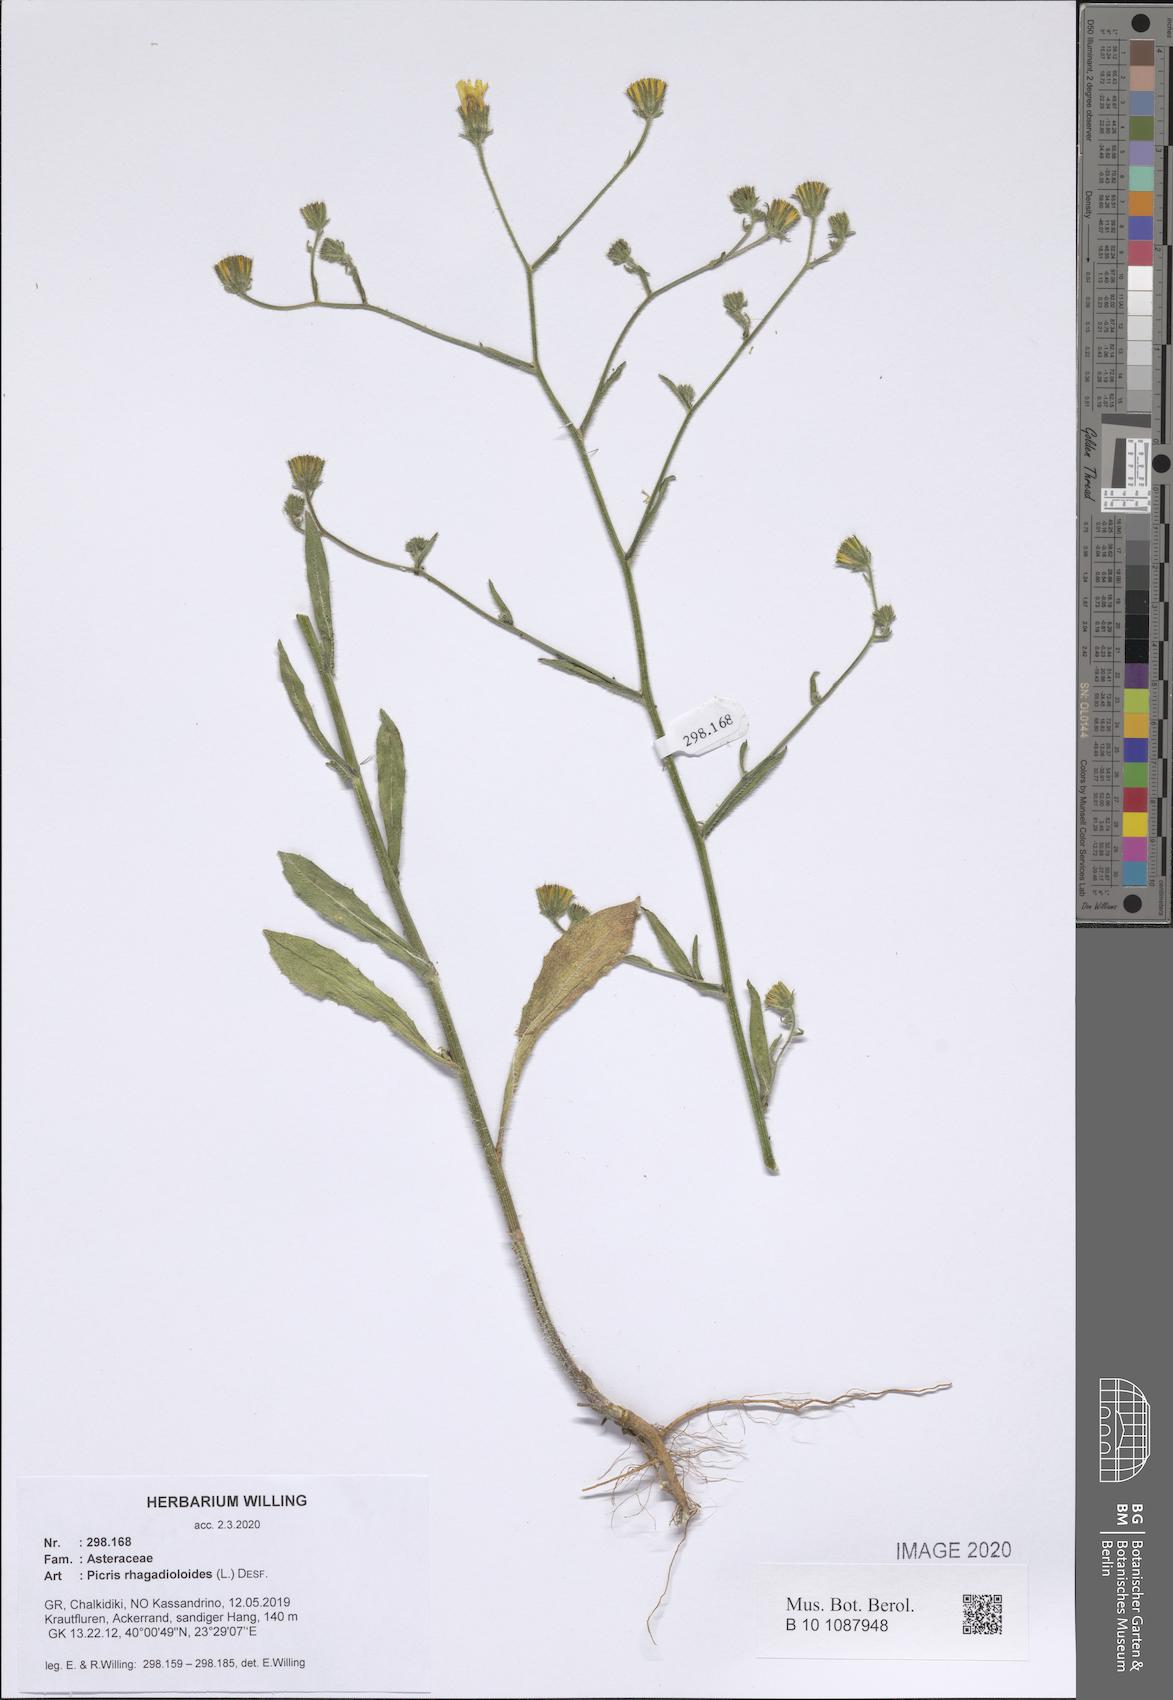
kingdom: Plantae
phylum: Tracheophyta
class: Magnoliopsida
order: Asterales
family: Asteraceae
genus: Picris
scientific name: Picris rhagadioloides
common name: Oxtongue
